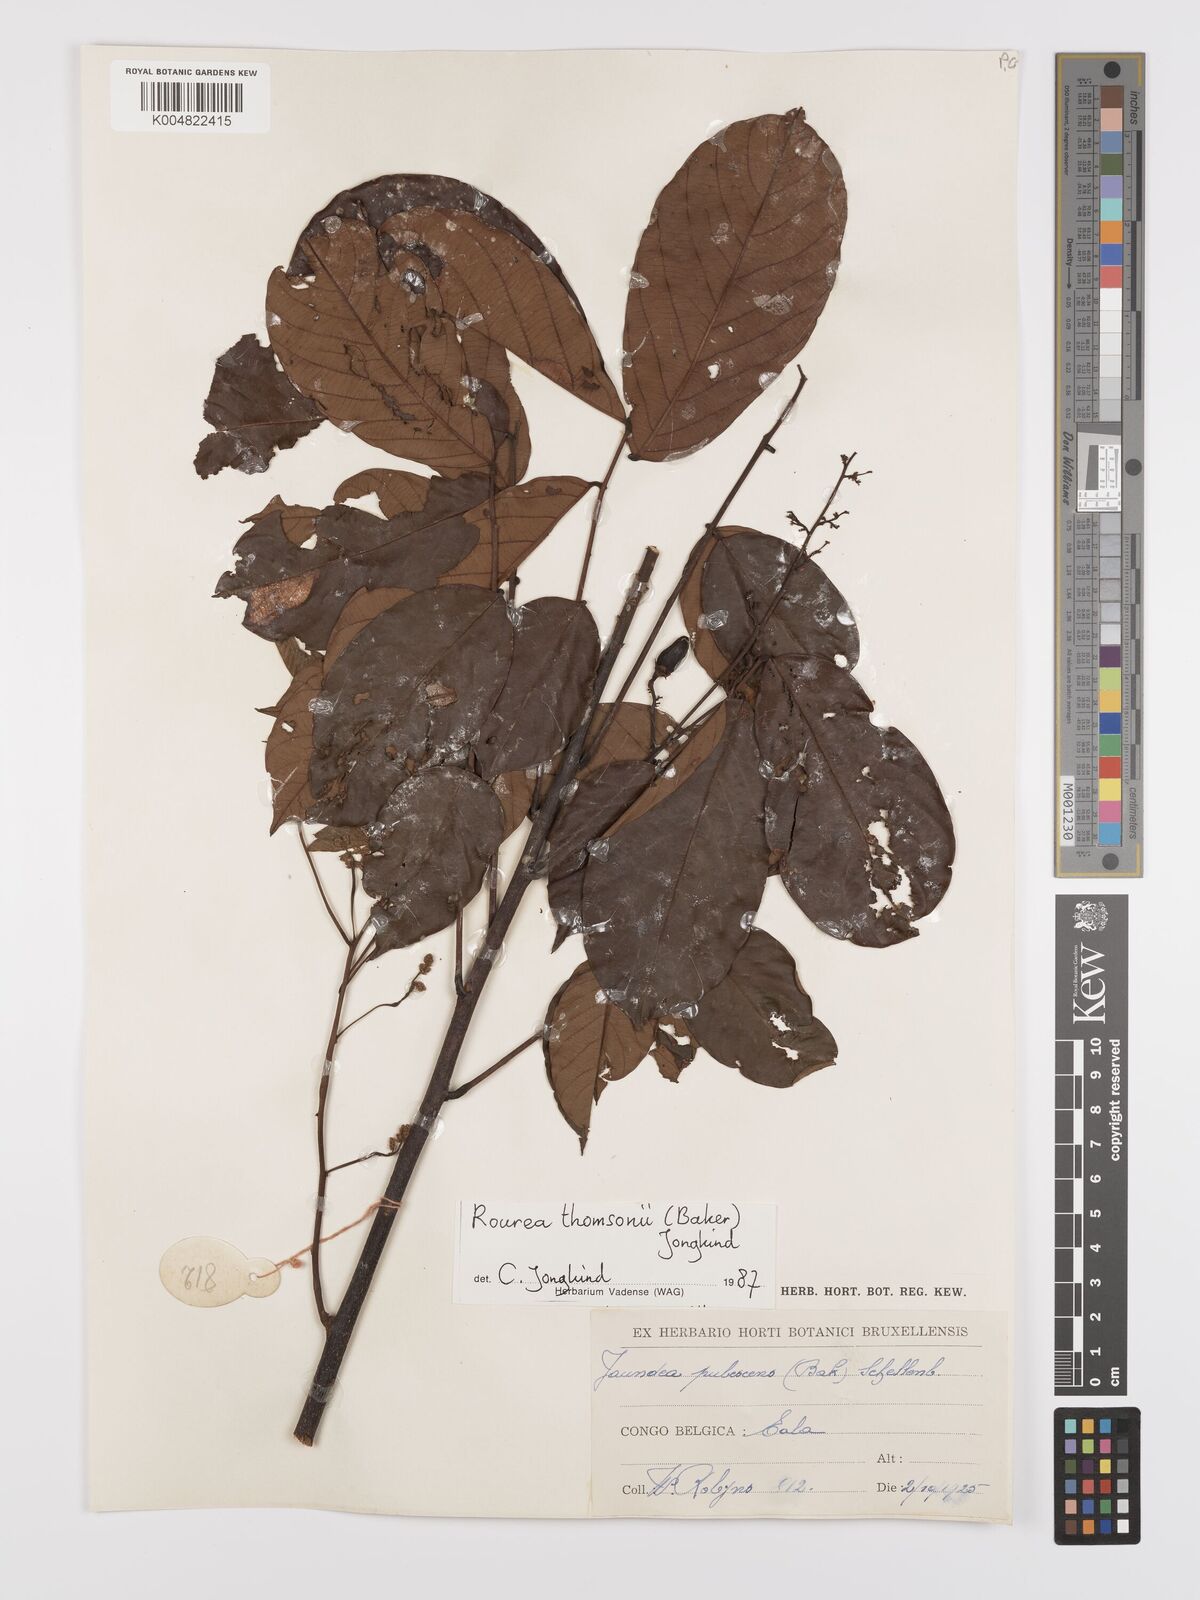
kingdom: Plantae
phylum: Tracheophyta
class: Magnoliopsida
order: Oxalidales
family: Connaraceae
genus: Rourea
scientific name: Rourea pubescens
